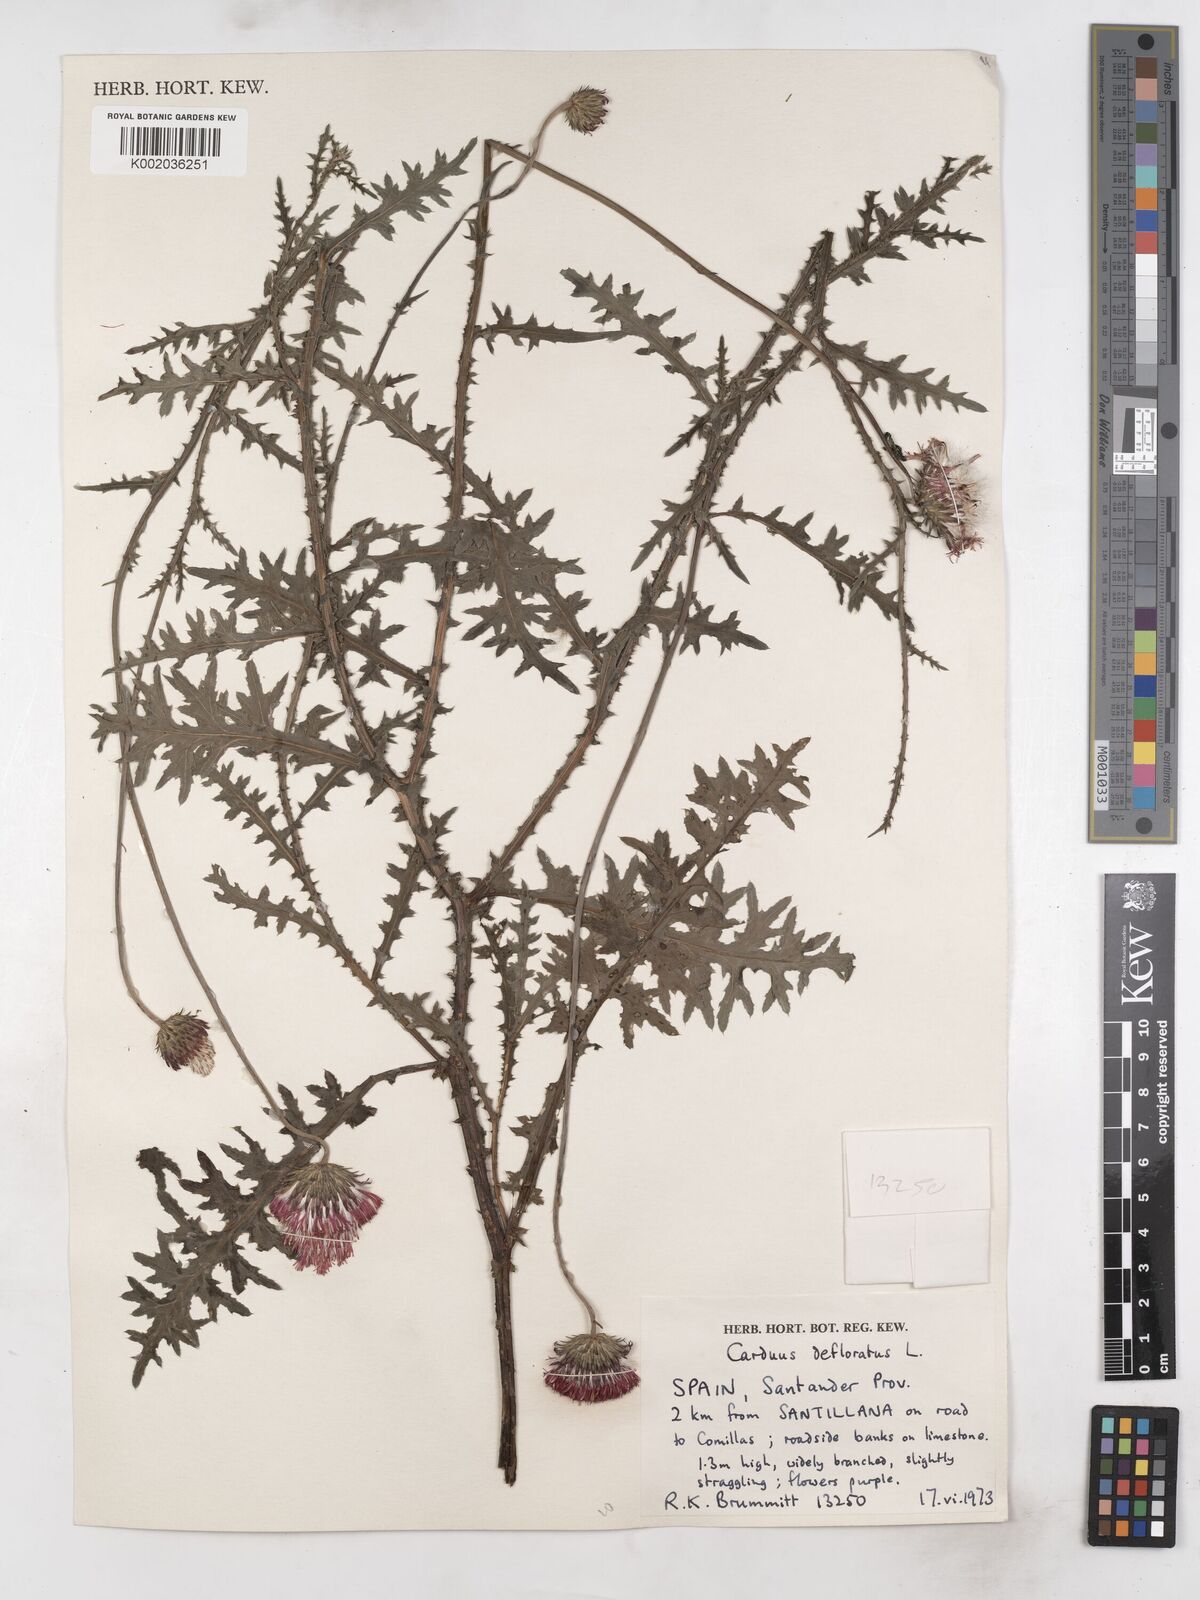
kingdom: Plantae
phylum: Tracheophyta
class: Magnoliopsida
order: Asterales
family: Asteraceae
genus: Carduus
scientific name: Carduus defloratus
